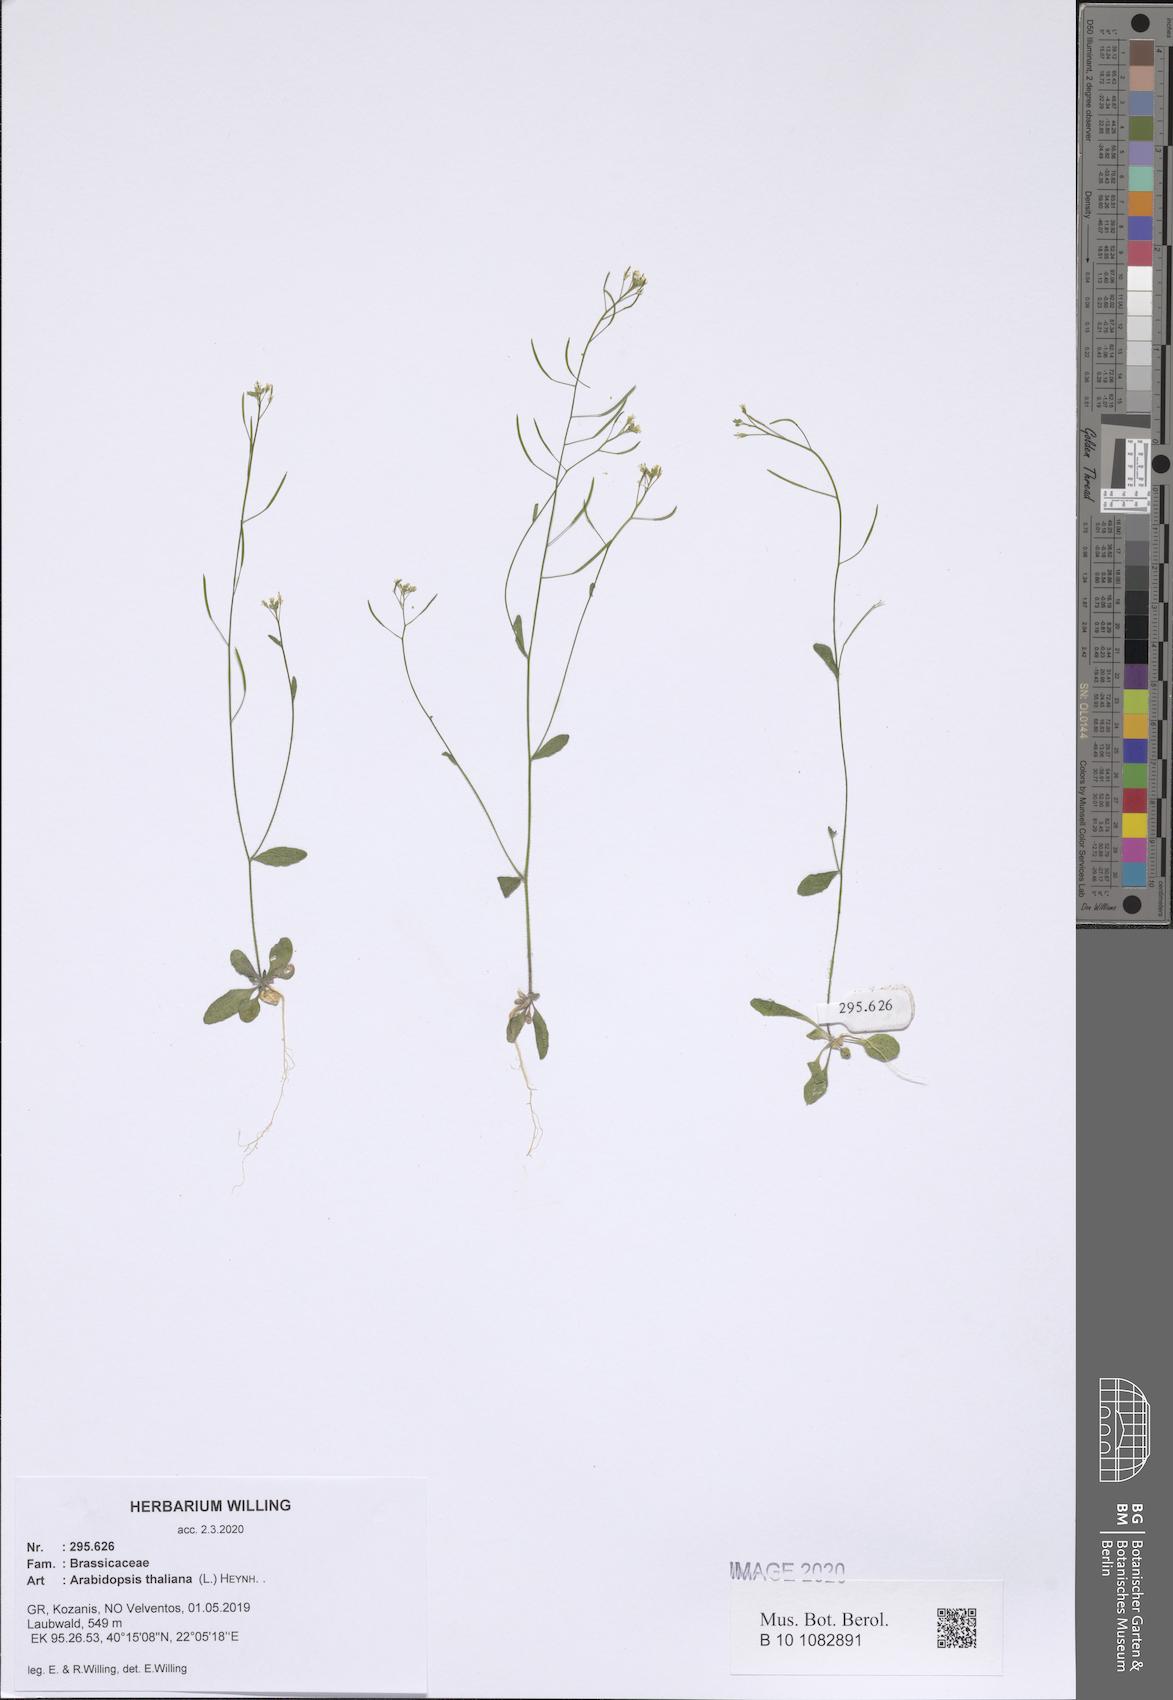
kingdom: Plantae
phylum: Tracheophyta
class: Magnoliopsida
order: Brassicales
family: Brassicaceae
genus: Arabidopsis
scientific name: Arabidopsis thaliana
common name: Thale cress
